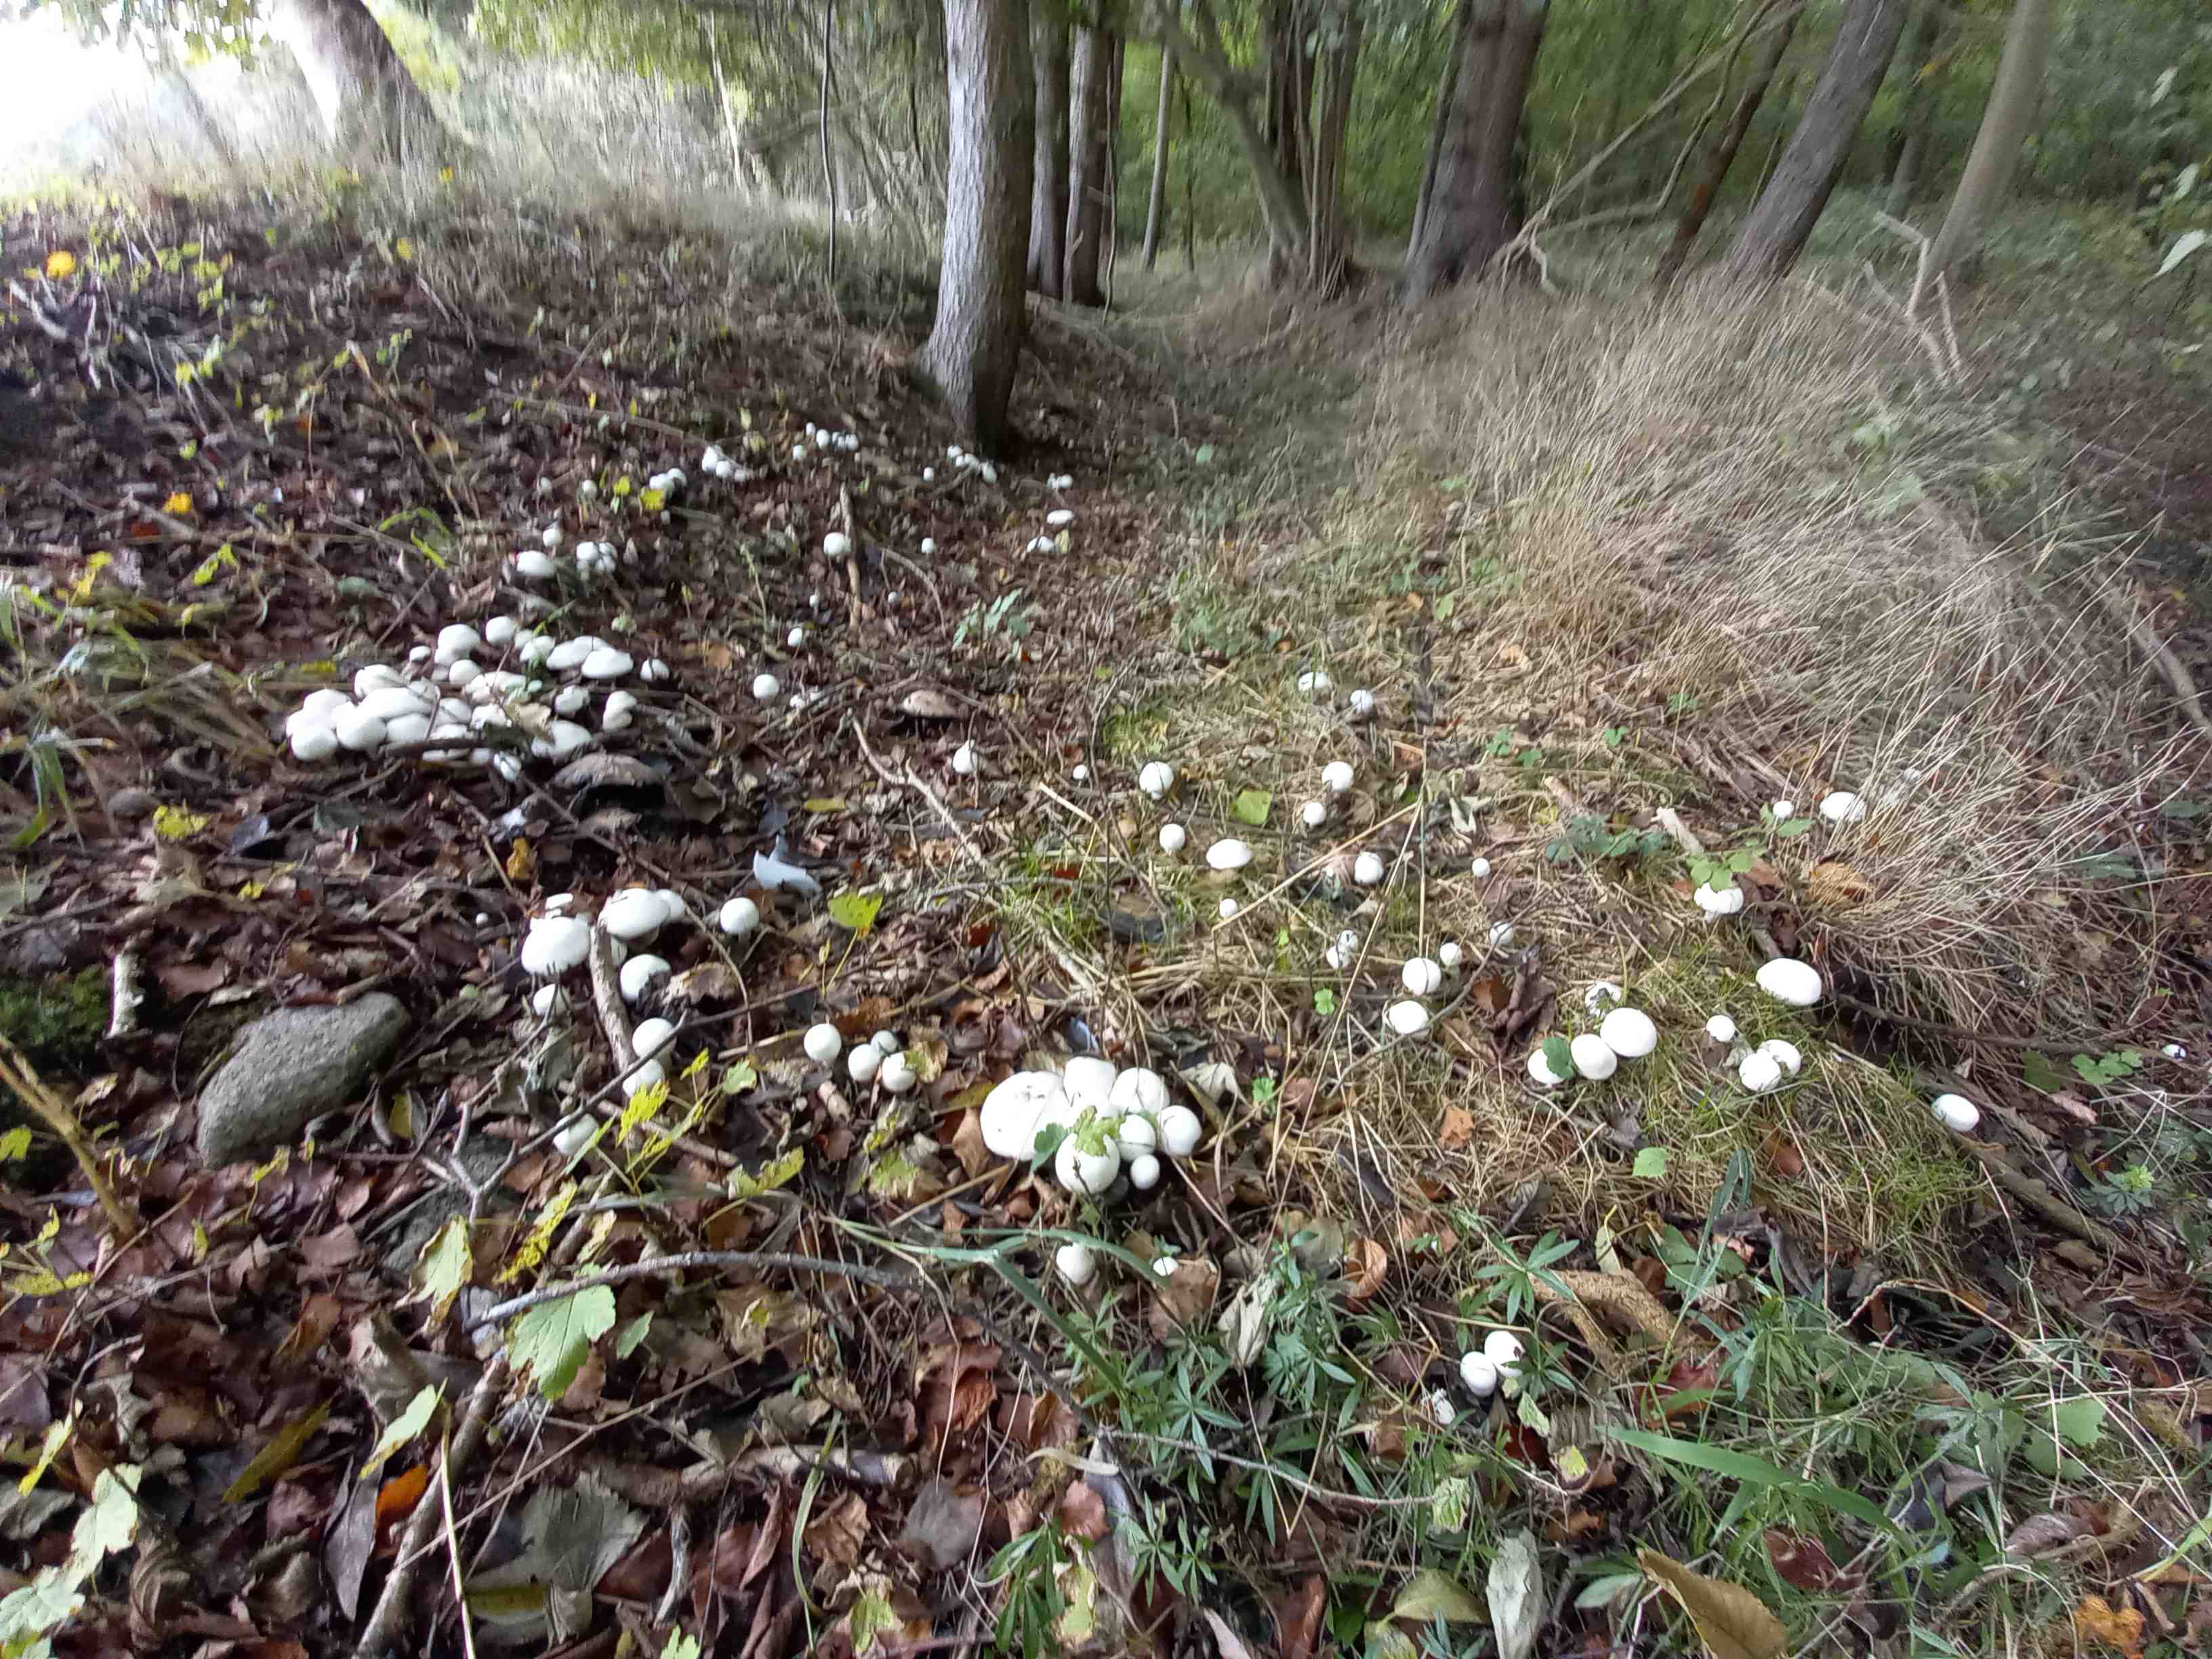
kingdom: Fungi
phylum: Basidiomycota
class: Agaricomycetes
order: Agaricales
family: Agaricaceae
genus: Agaricus
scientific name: Agaricus xanthodermus
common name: karbol-champignon
